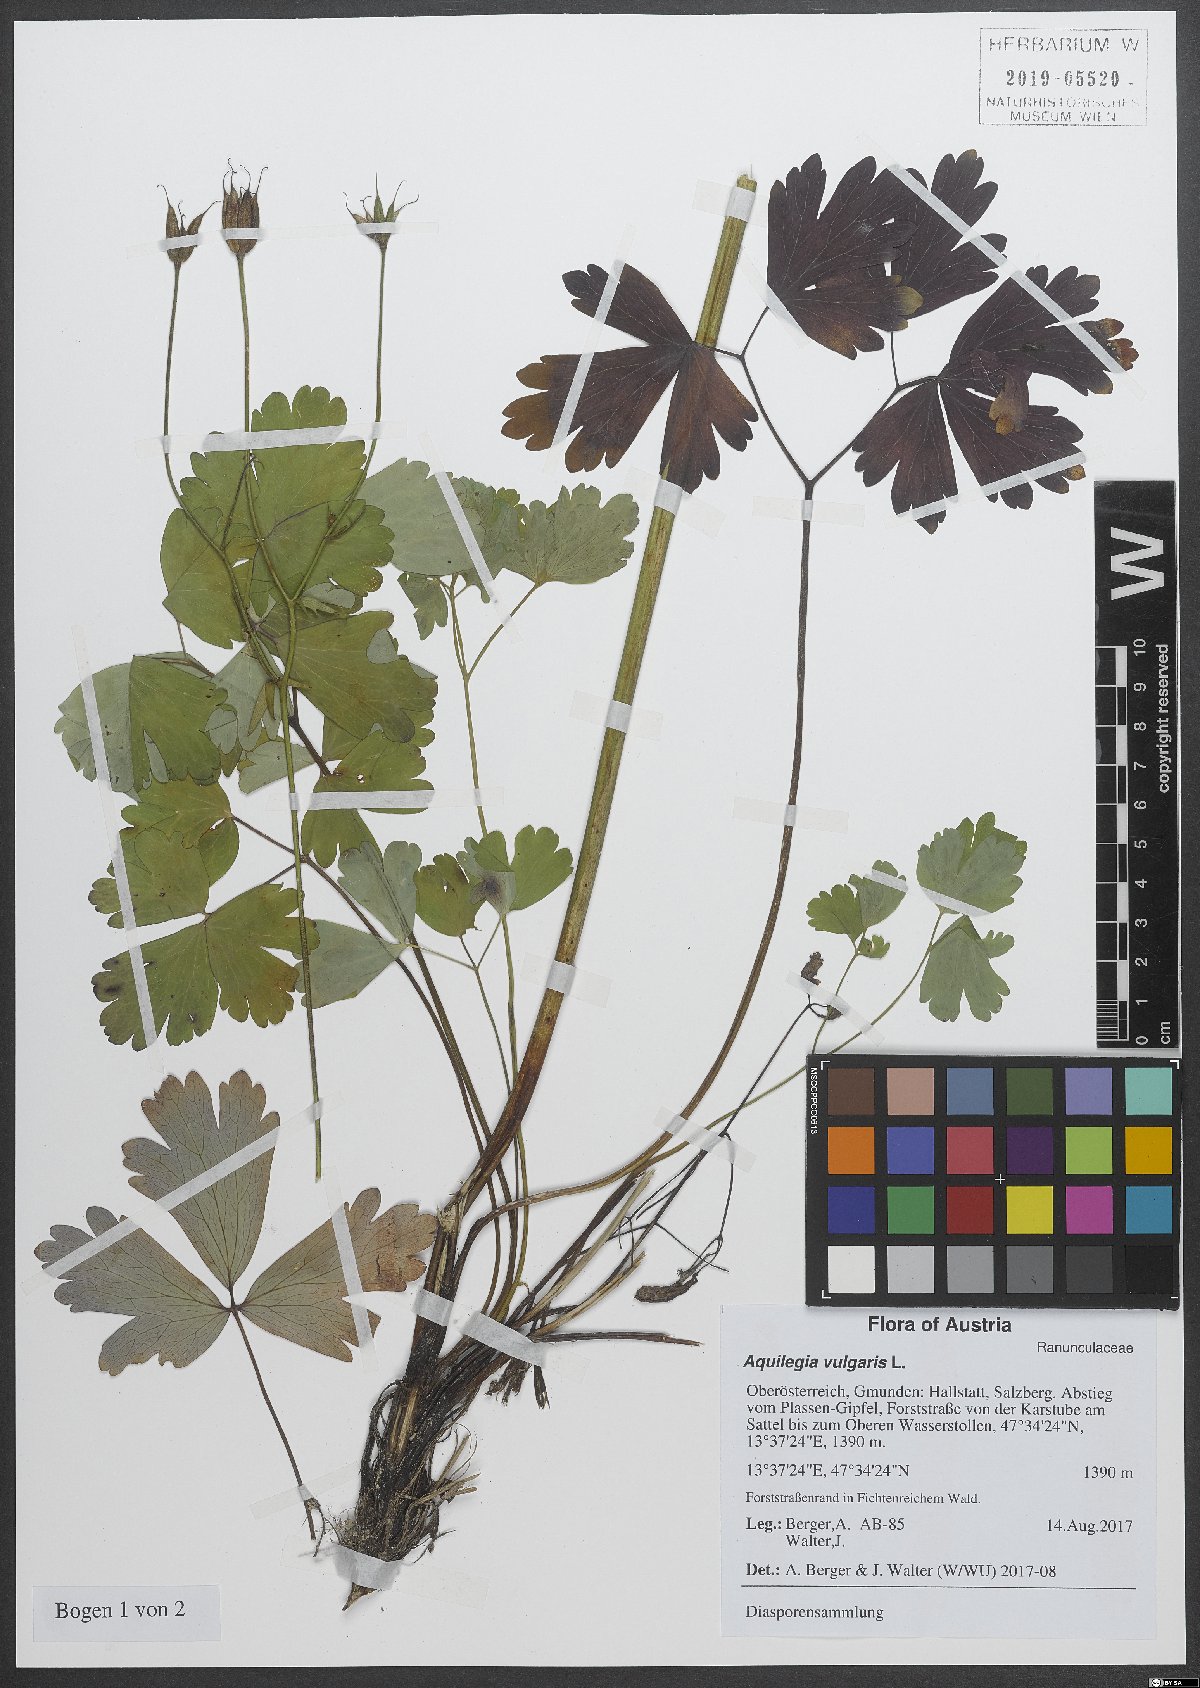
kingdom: Plantae
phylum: Tracheophyta
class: Magnoliopsida
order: Ranunculales
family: Ranunculaceae
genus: Aquilegia
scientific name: Aquilegia vulgaris
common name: Columbine
